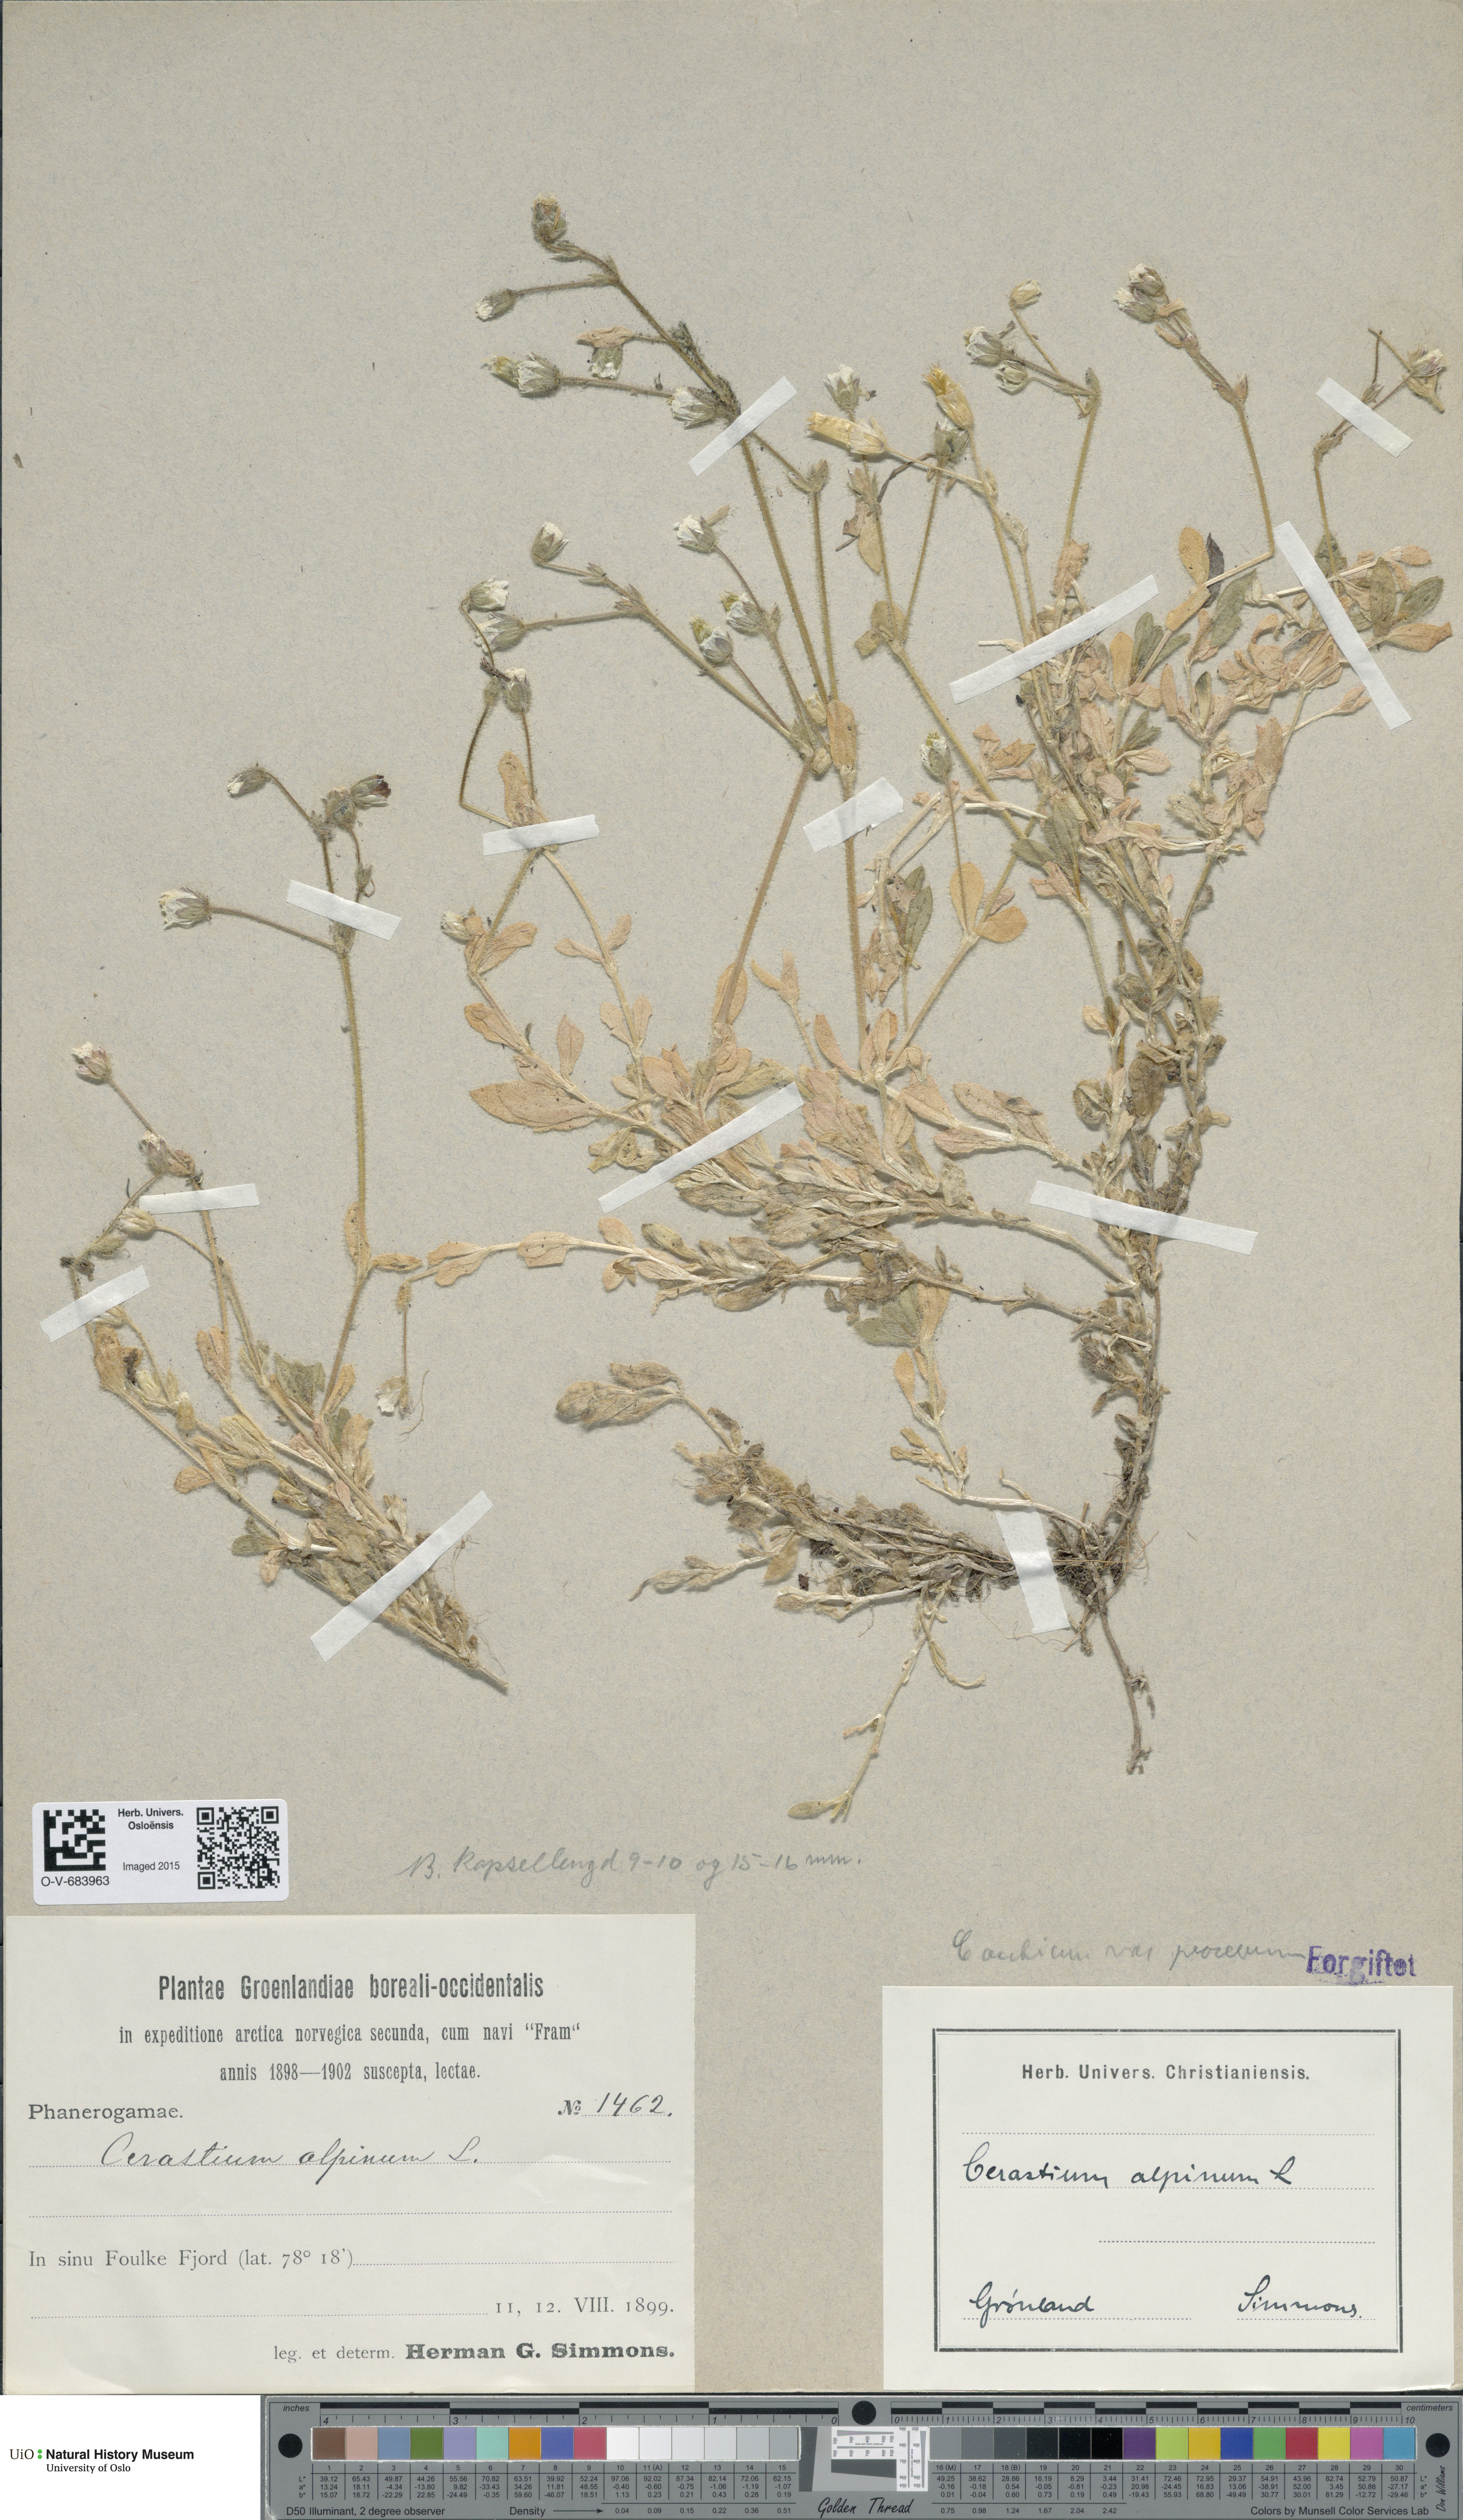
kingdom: Plantae
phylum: Tracheophyta
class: Magnoliopsida
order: Caryophyllales
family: Caryophyllaceae
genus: Cerastium
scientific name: Cerastium arcticum
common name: Arctic mouse-ear
